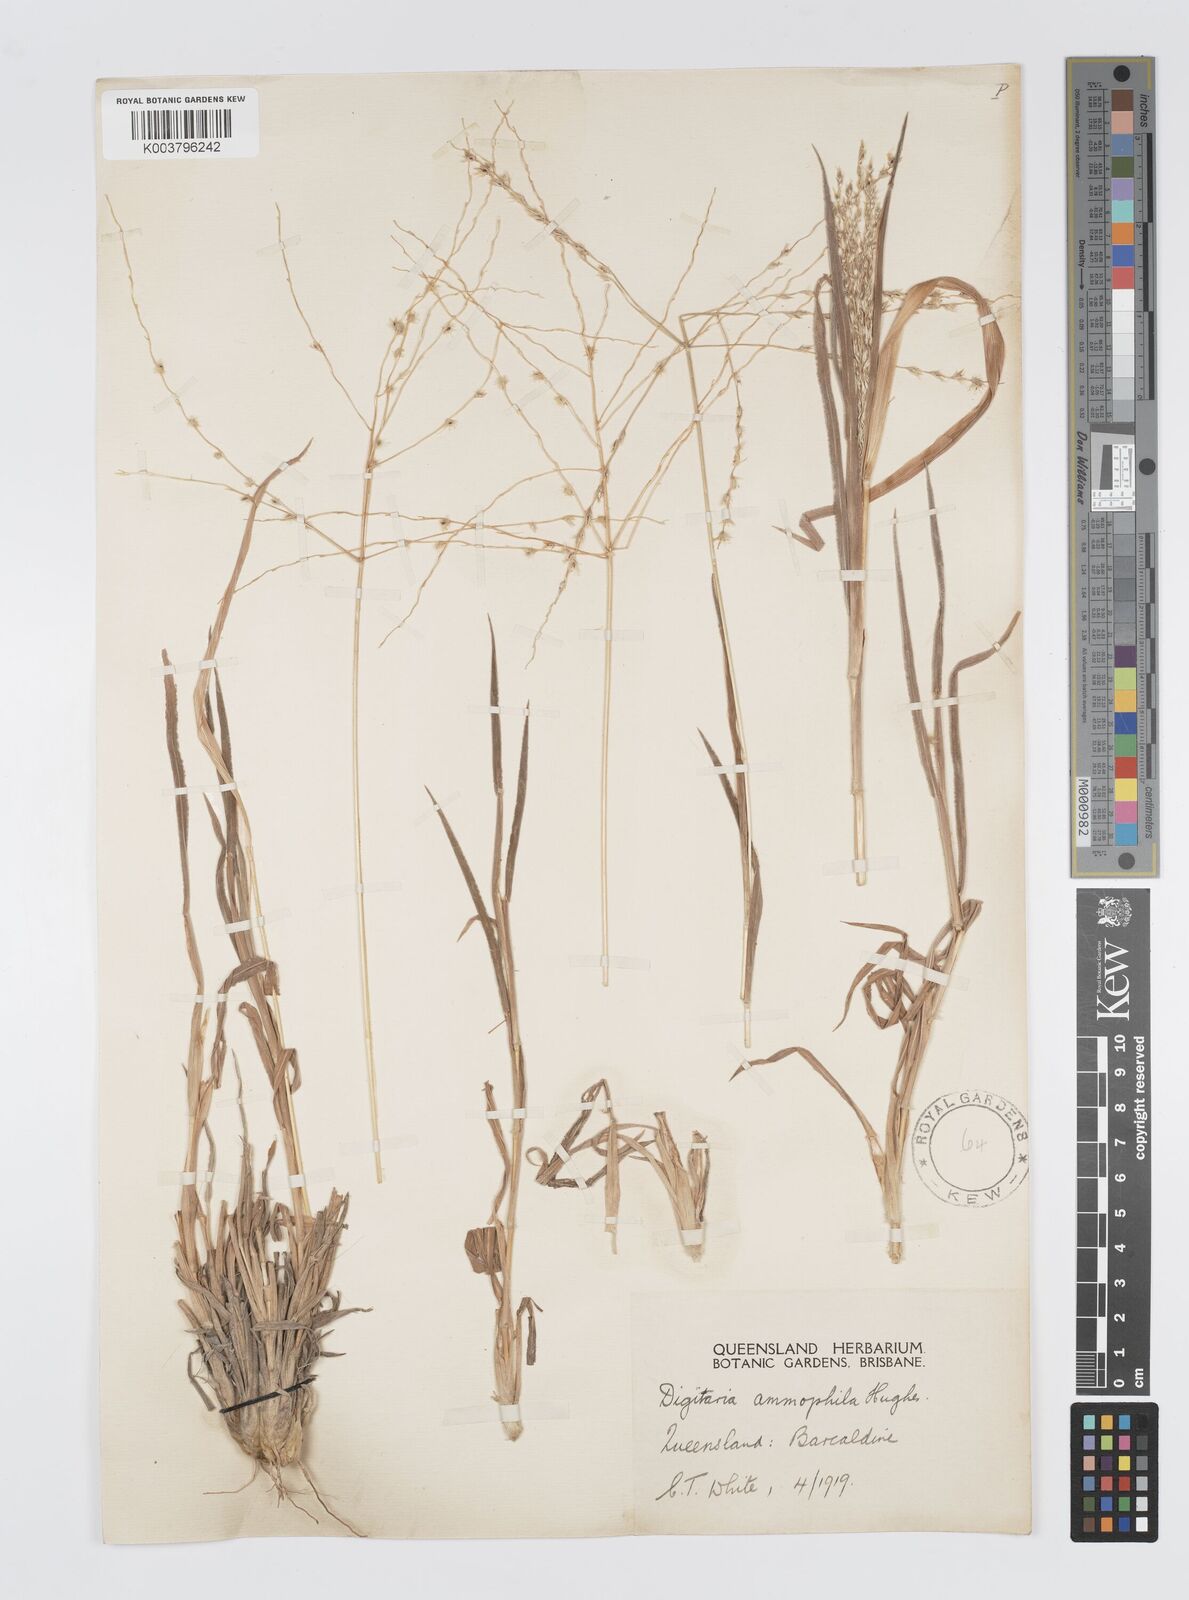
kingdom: Plantae
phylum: Tracheophyta
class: Liliopsida
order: Poales
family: Poaceae
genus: Digitaria
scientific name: Digitaria ammophila
